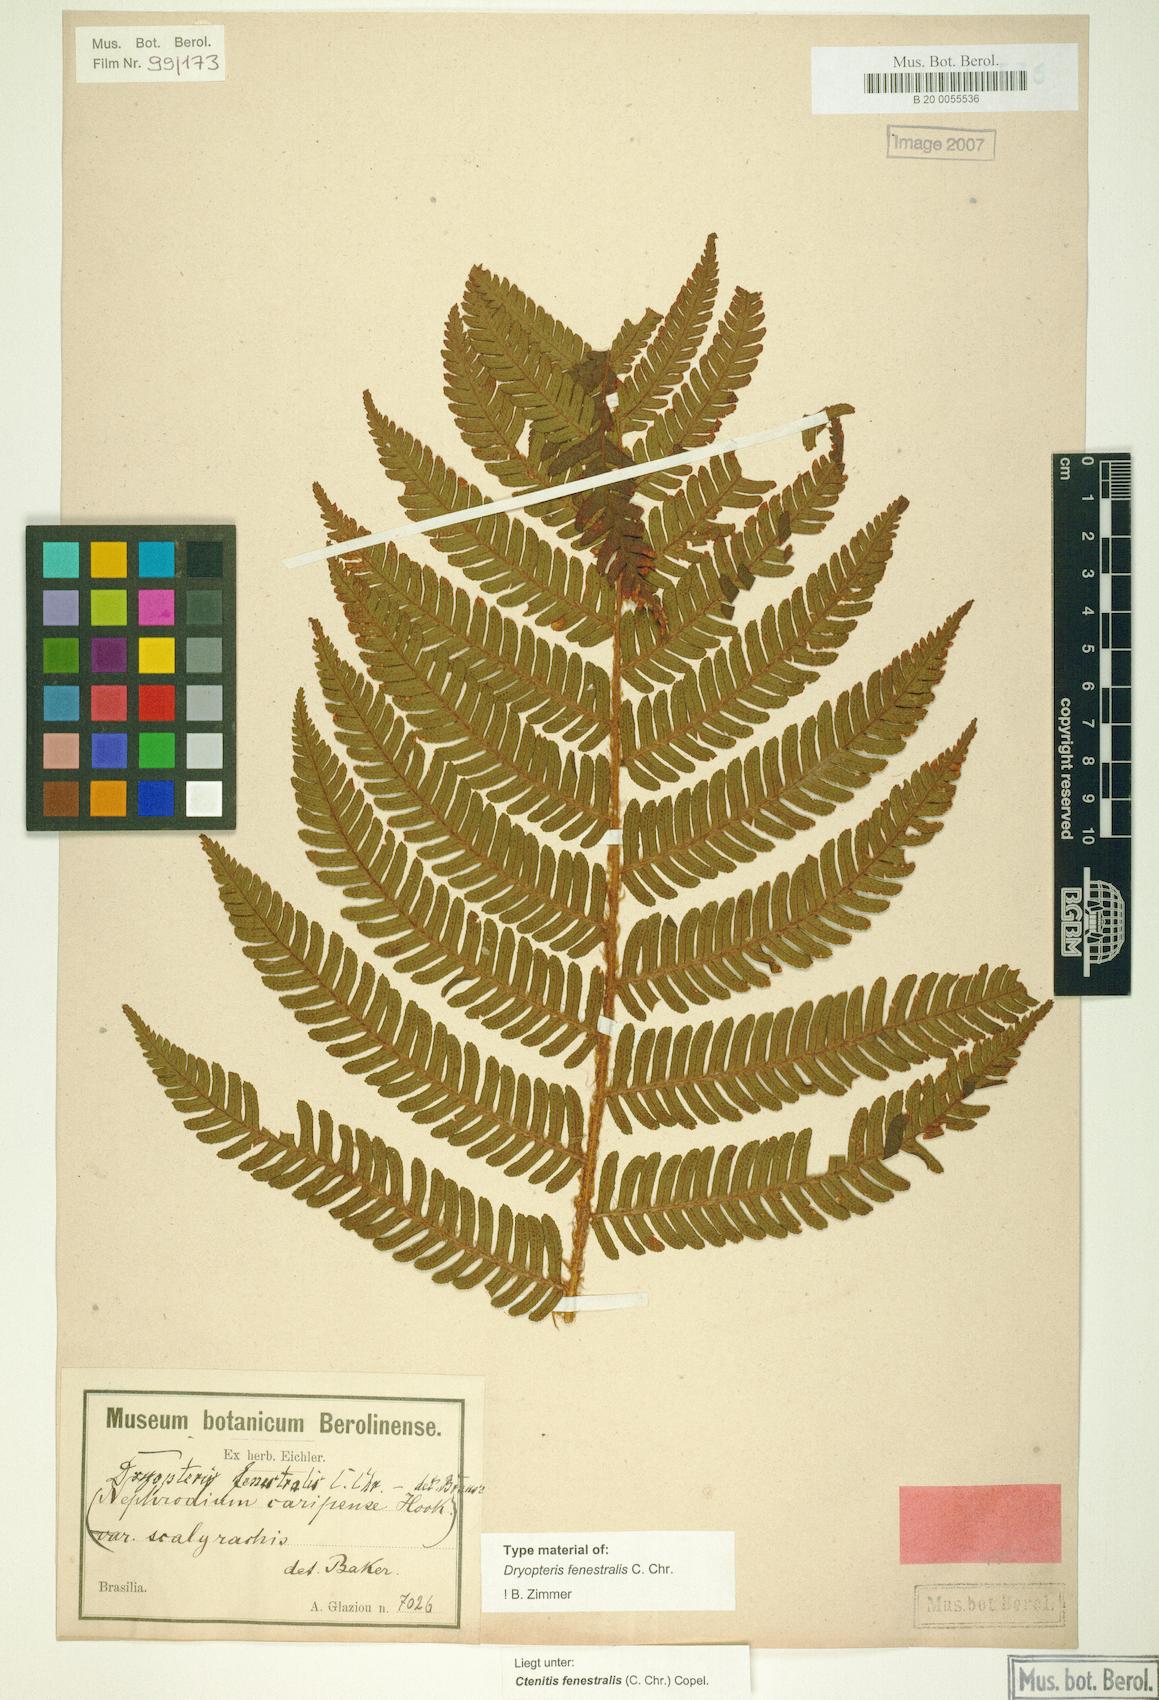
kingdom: Plantae
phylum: Tracheophyta
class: Polypodiopsida
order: Polypodiales
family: Dryopteridaceae
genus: Ctenitis
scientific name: Ctenitis fenestralis
